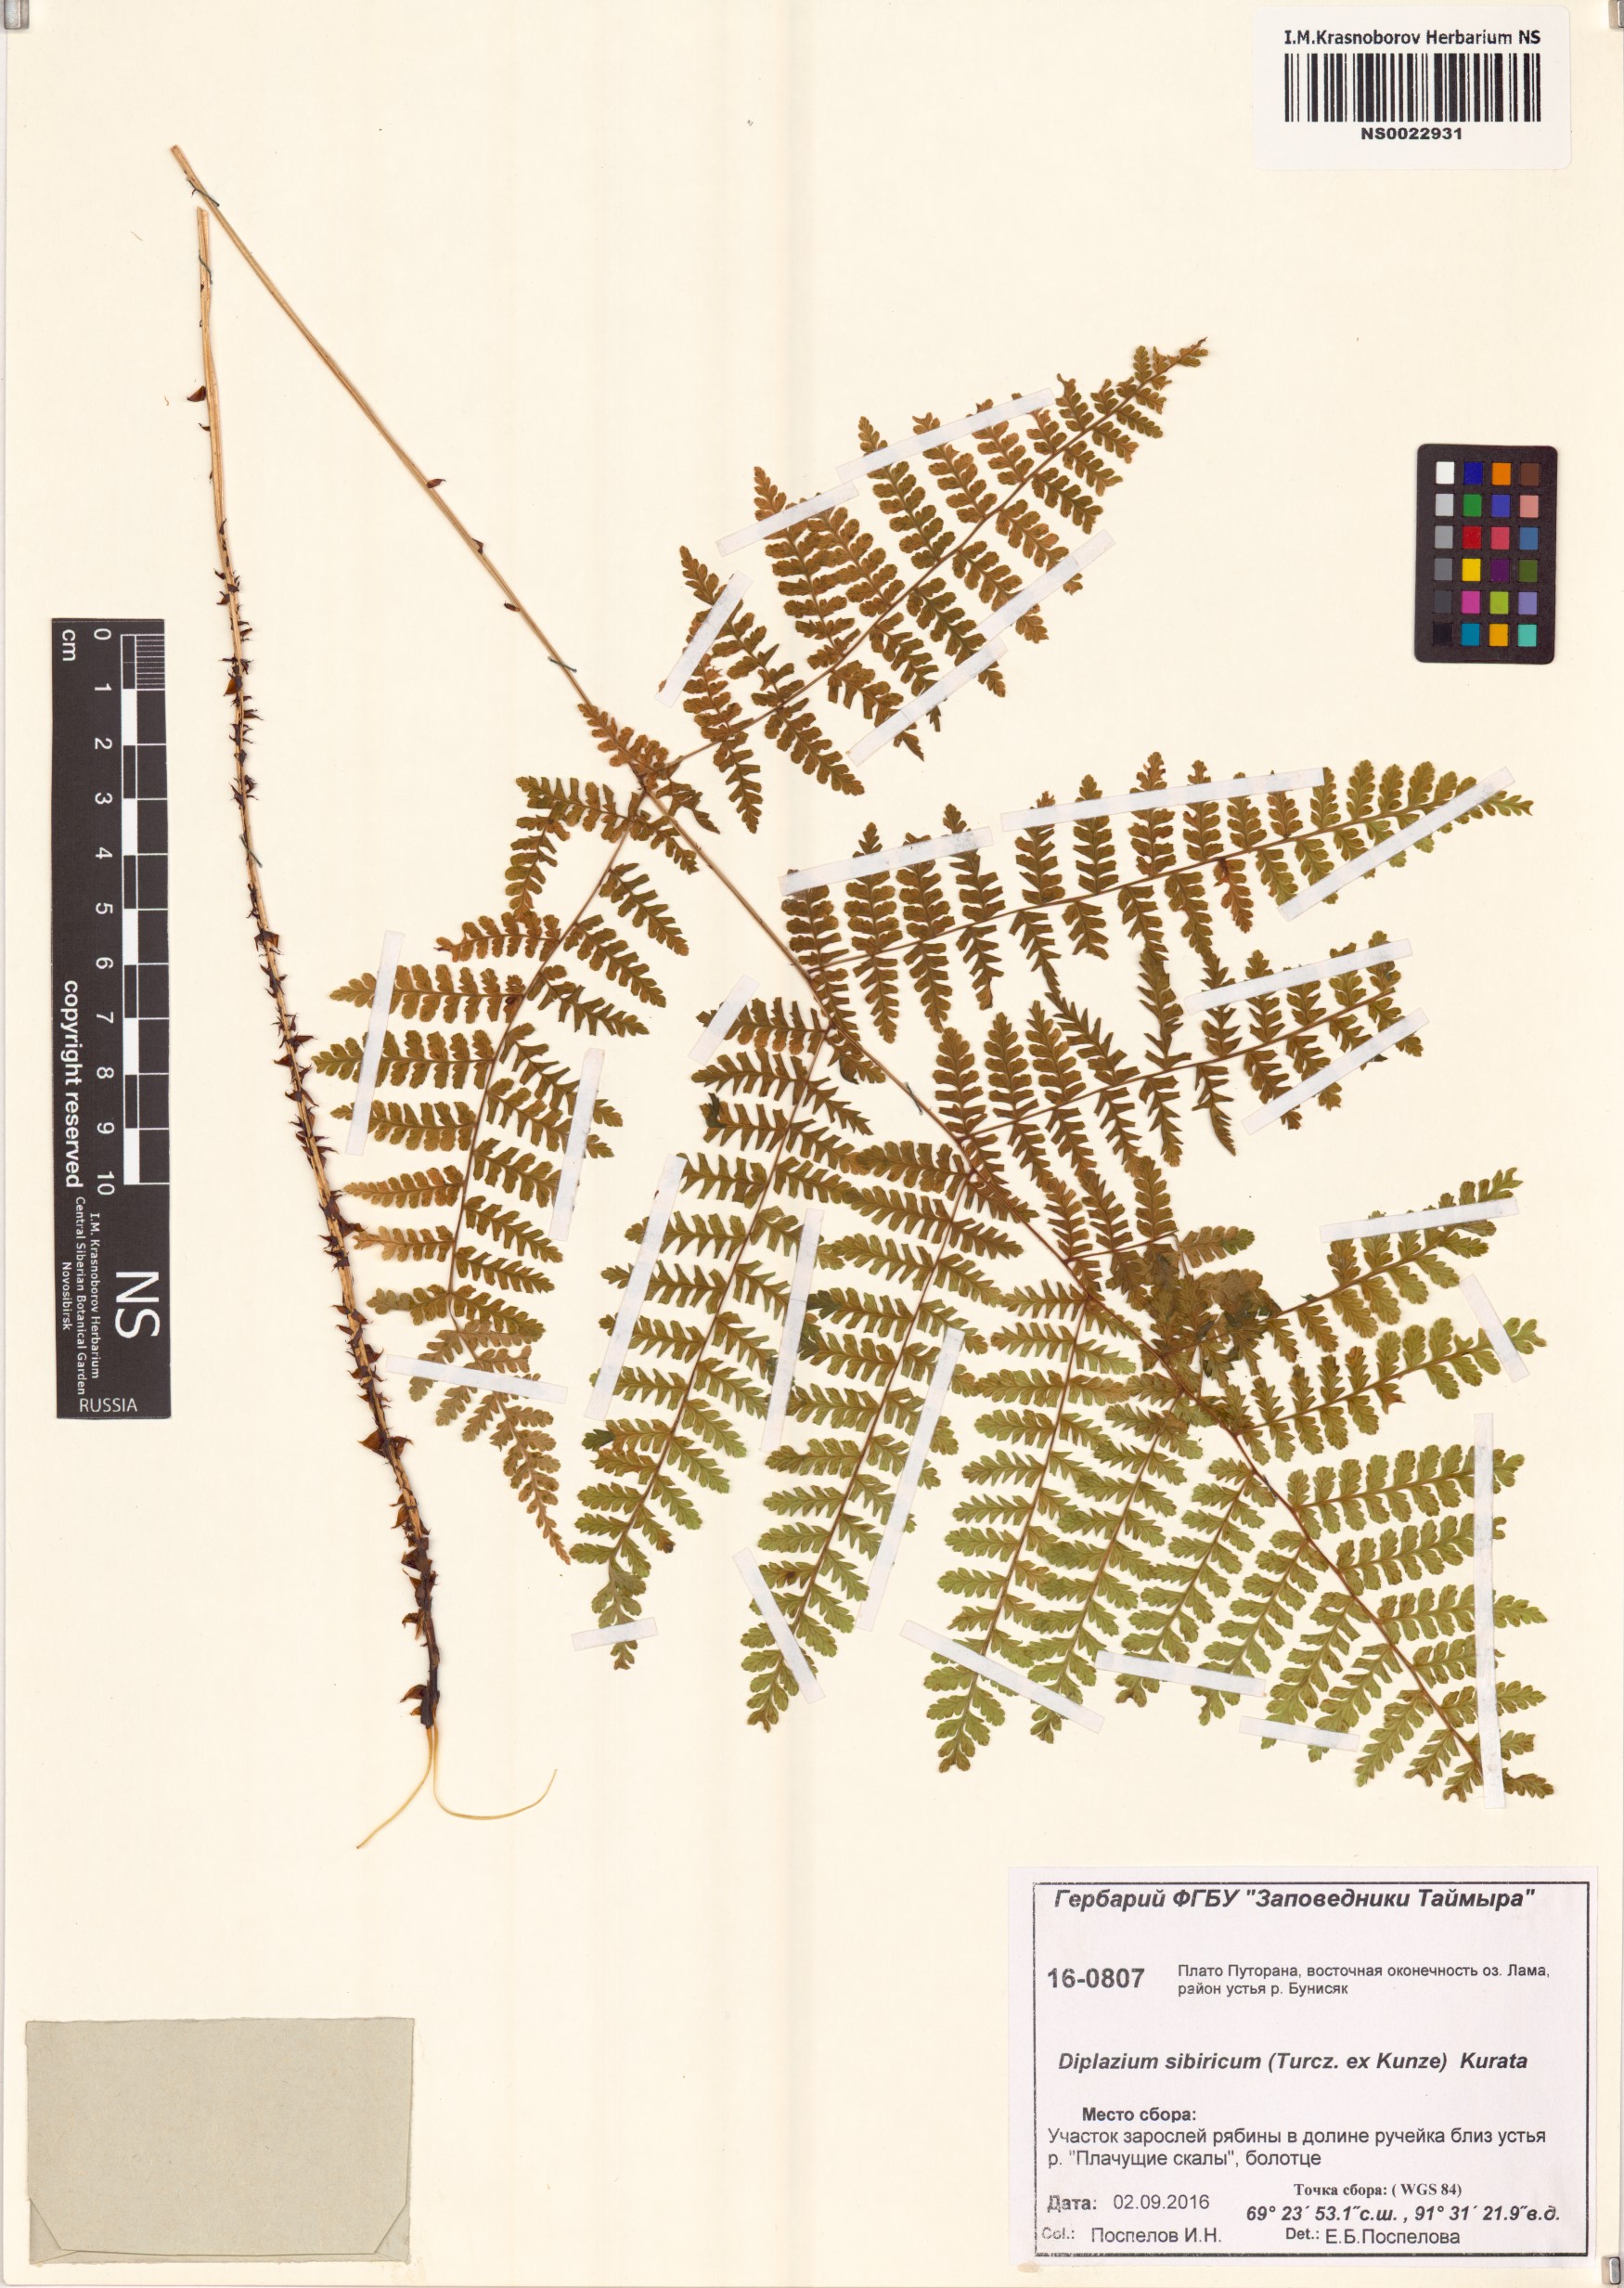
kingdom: Plantae
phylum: Tracheophyta
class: Polypodiopsida
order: Polypodiales
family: Athyriaceae
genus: Diplazium
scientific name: Diplazium sibiricum
